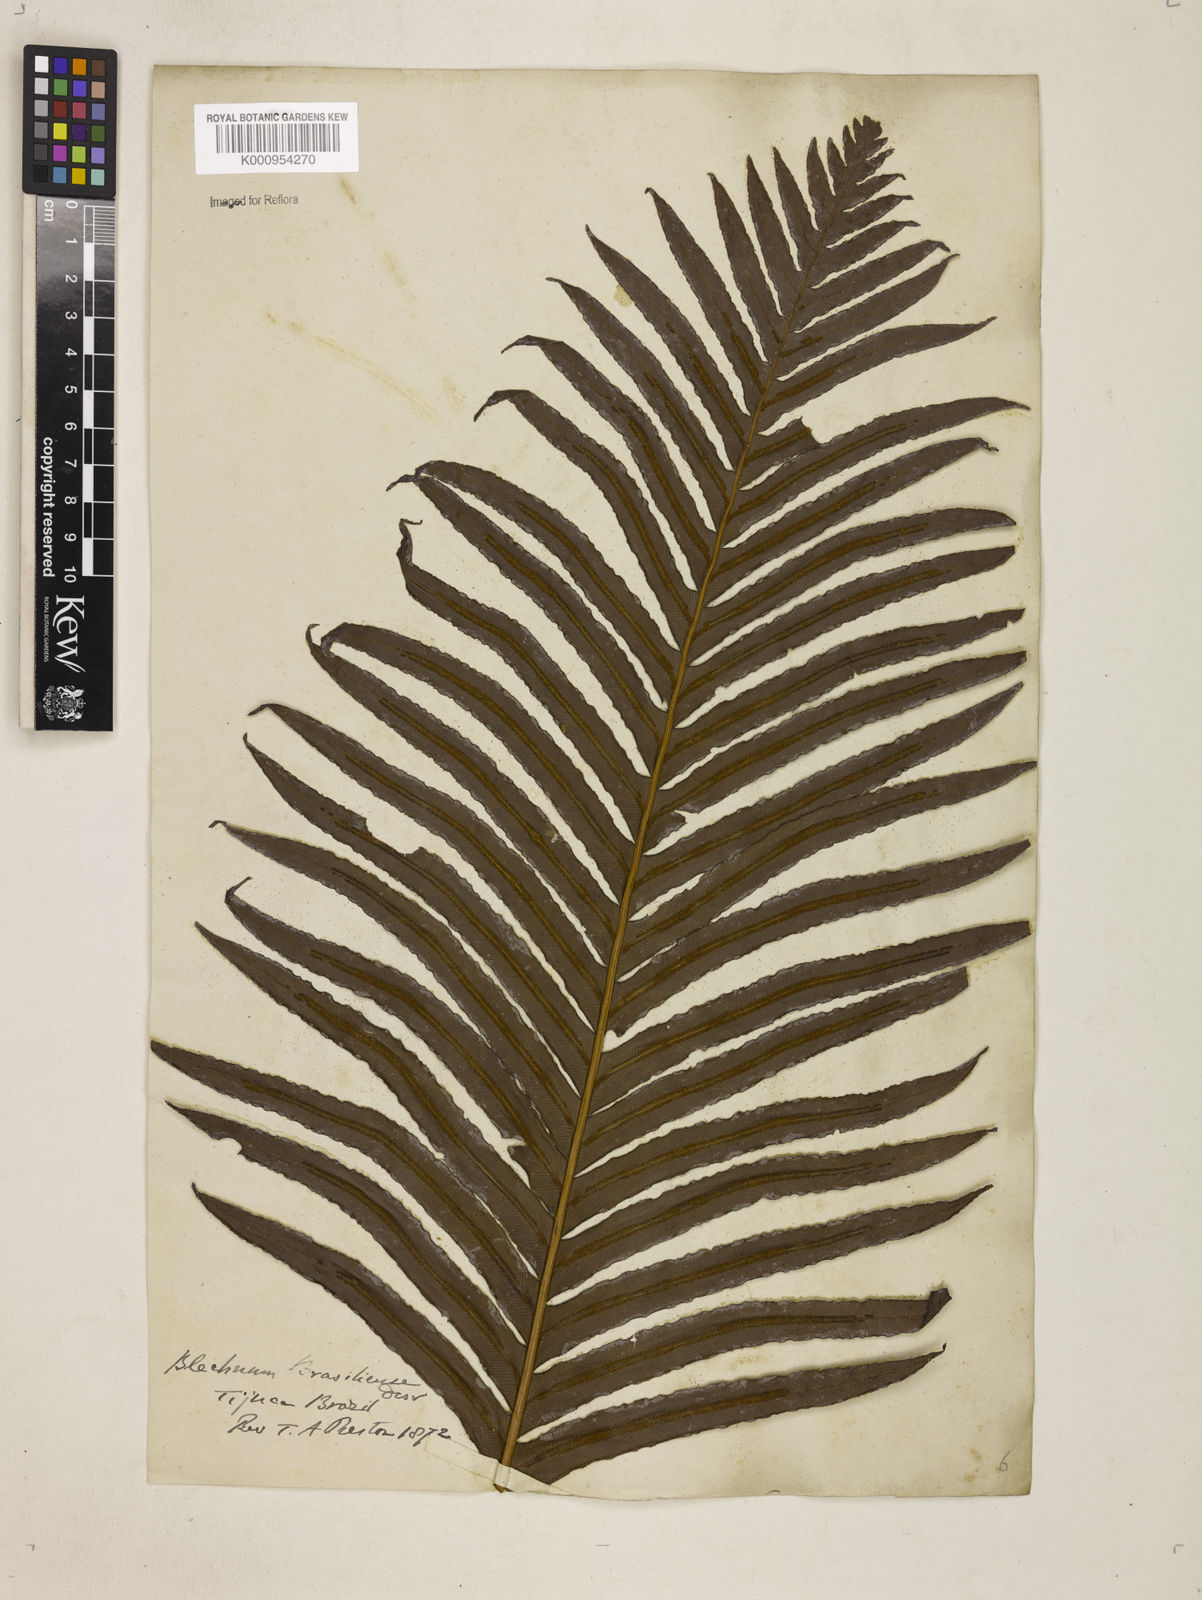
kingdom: Plantae
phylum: Tracheophyta
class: Polypodiopsida
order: Polypodiales
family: Blechnaceae
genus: Neoblechnum
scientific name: Neoblechnum brasiliense
